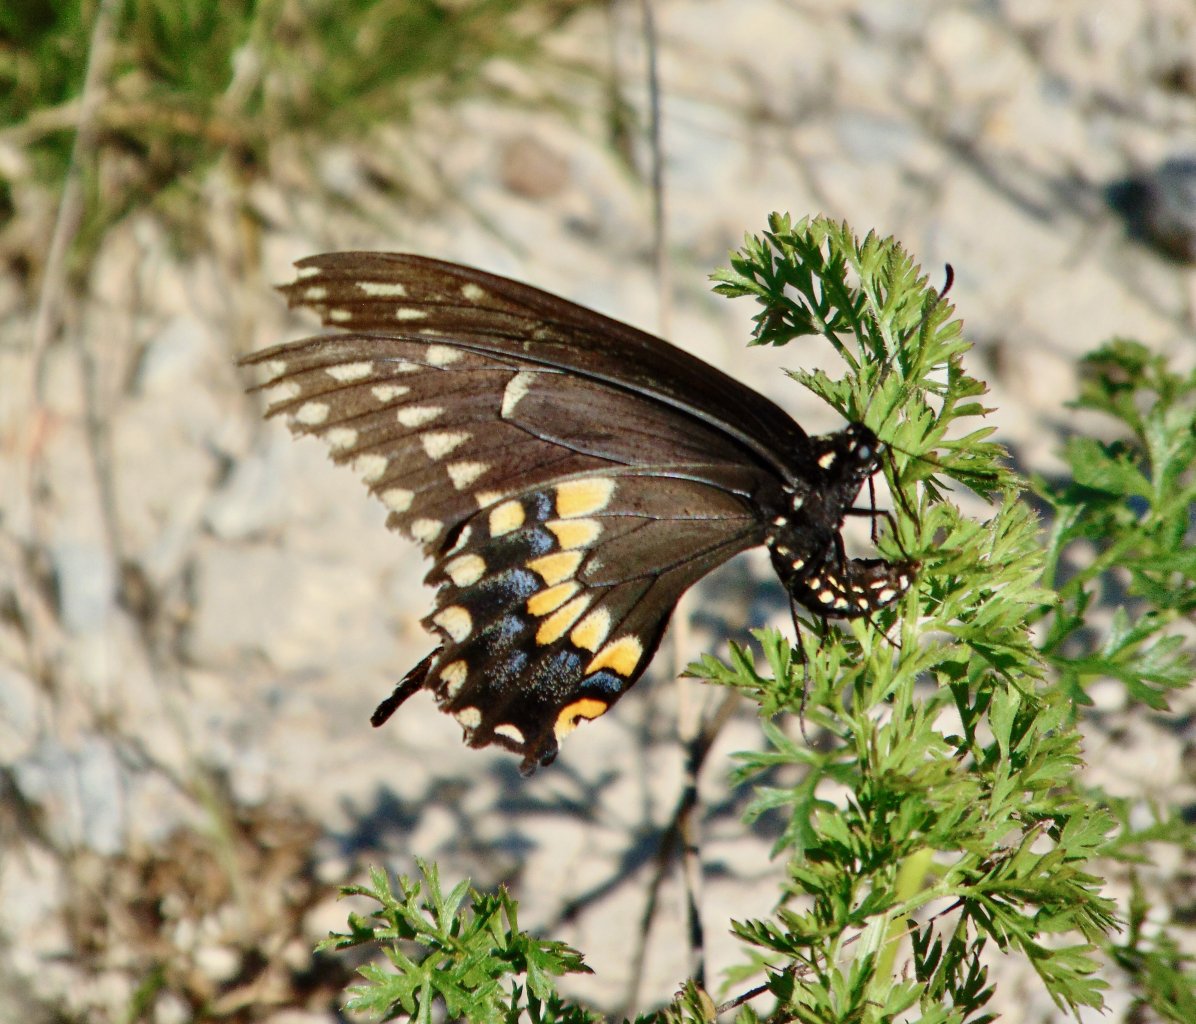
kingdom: Animalia
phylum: Arthropoda
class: Insecta
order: Lepidoptera
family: Papilionidae
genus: Papilio
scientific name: Papilio polyxenes
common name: Black Swallowtail
